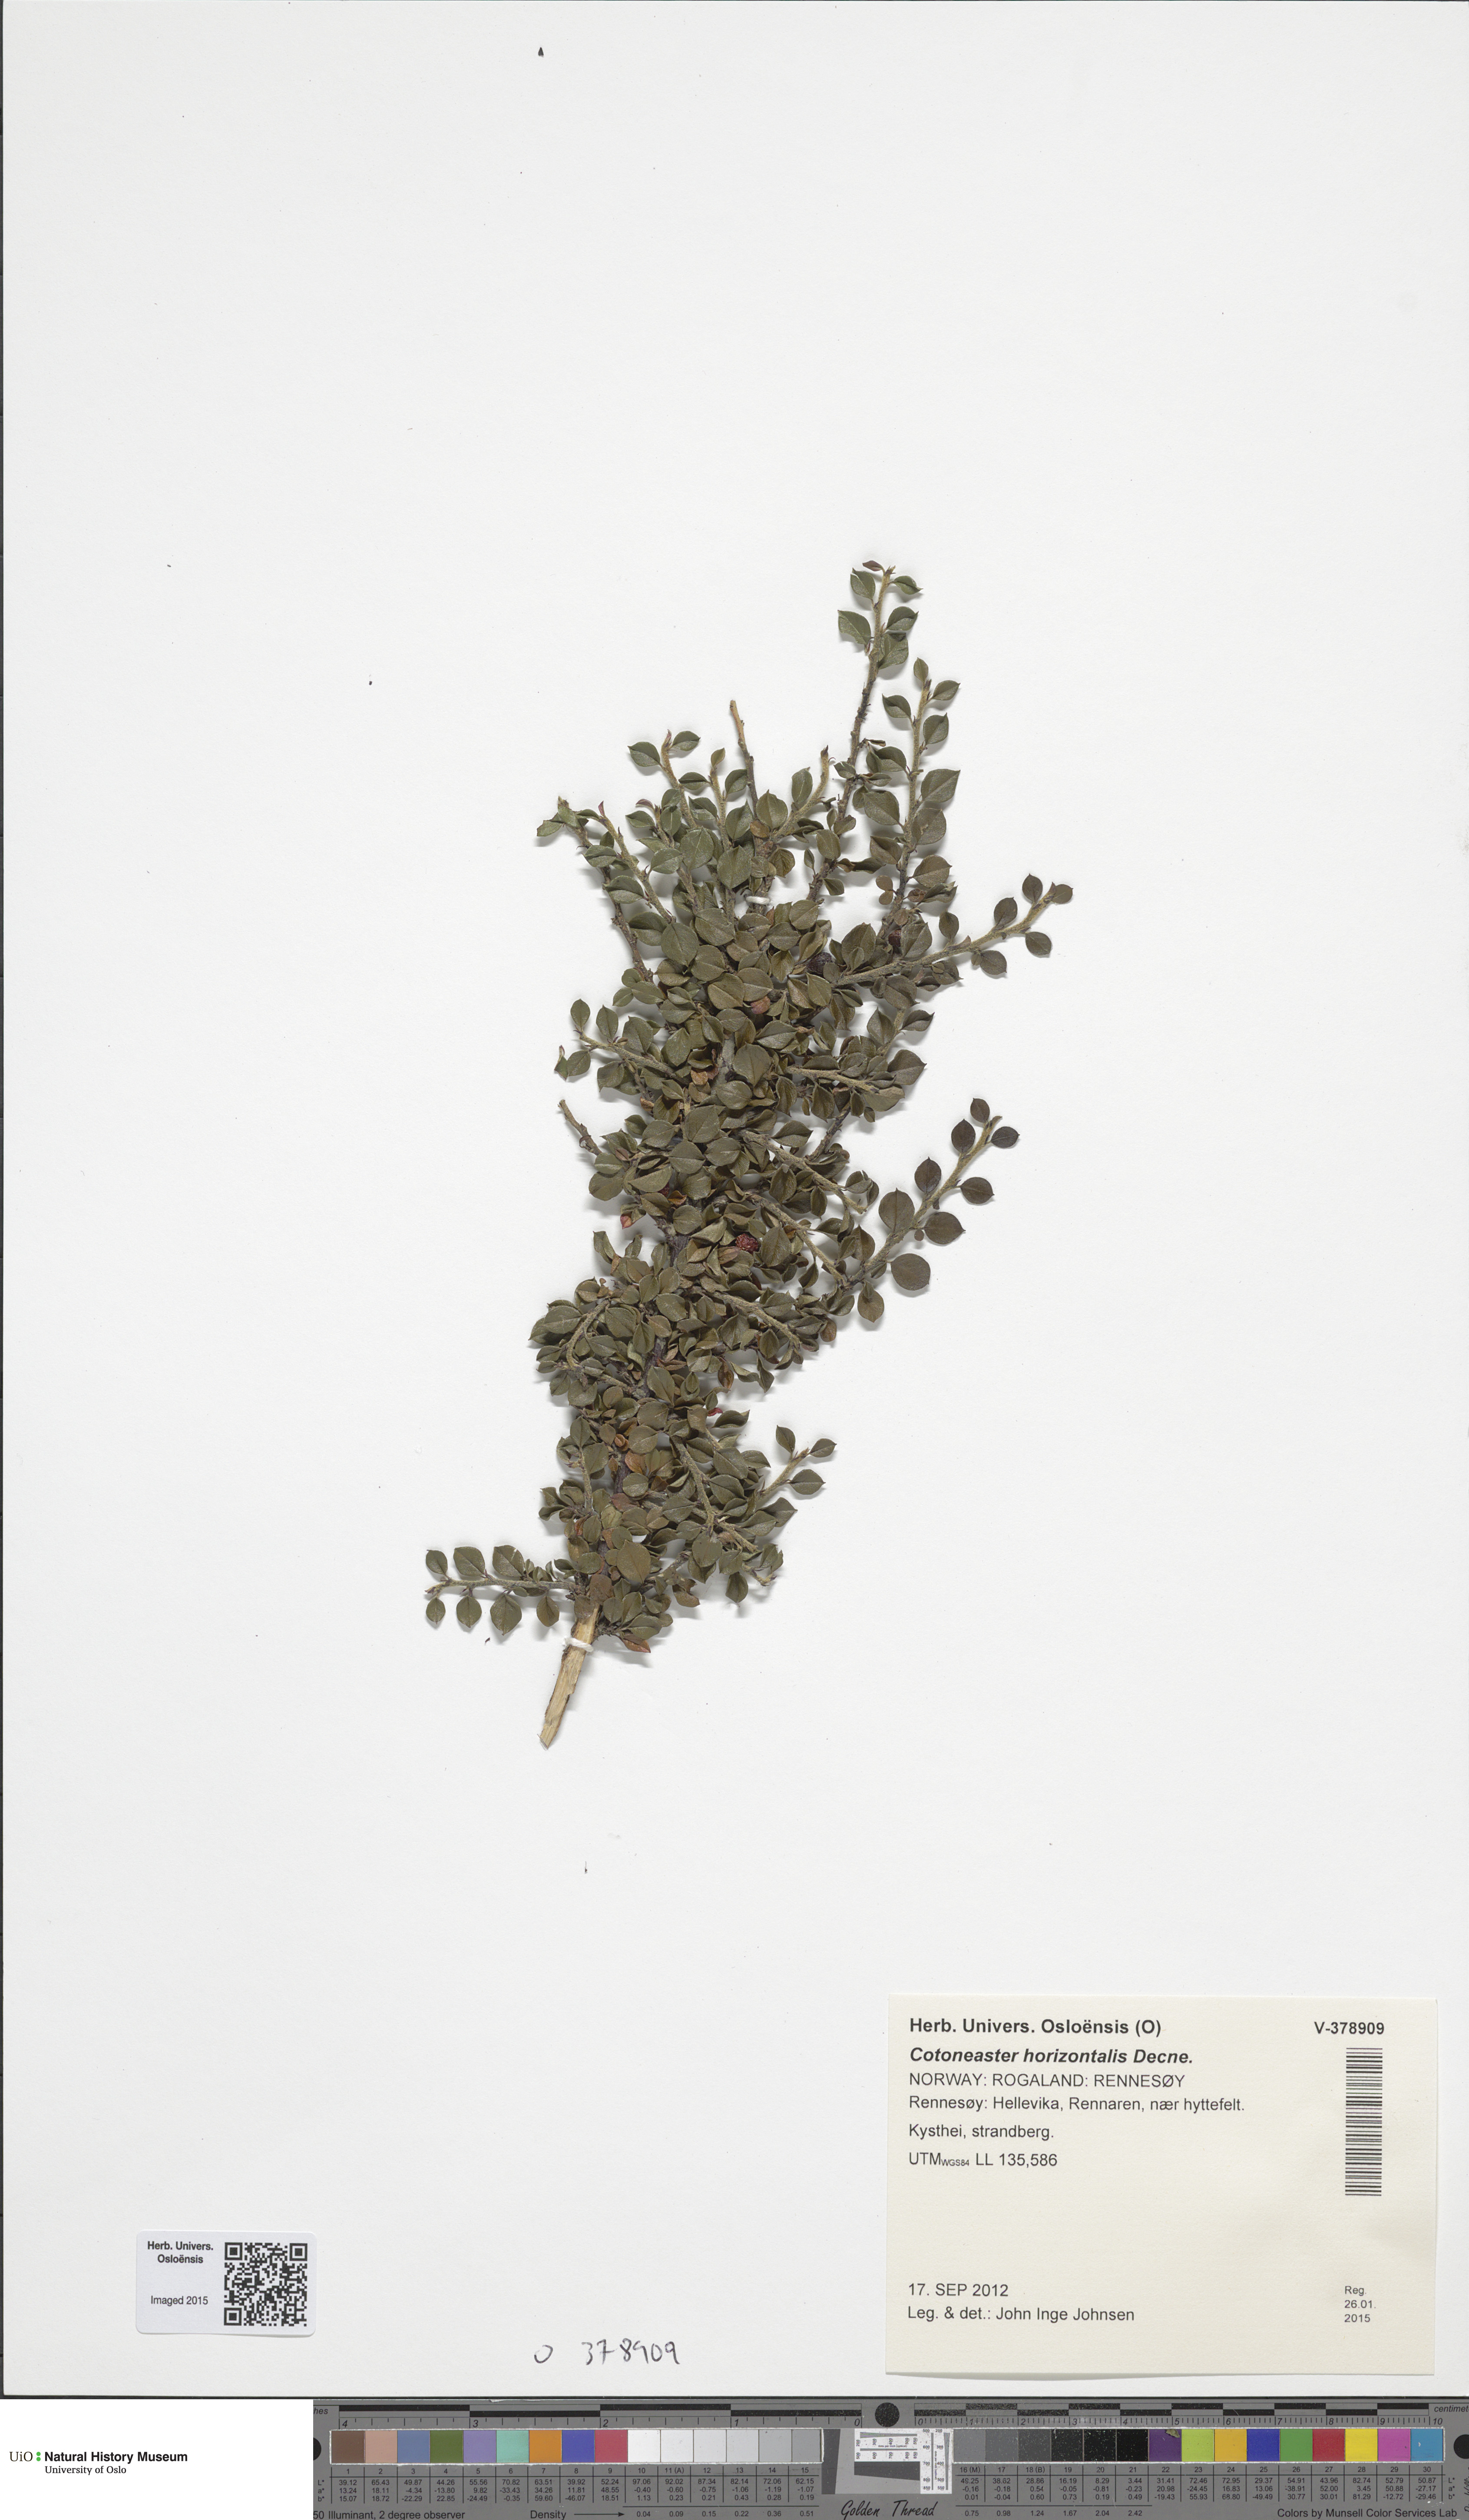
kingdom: Plantae
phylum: Tracheophyta
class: Magnoliopsida
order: Rosales
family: Rosaceae
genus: Cotoneaster
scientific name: Cotoneaster horizontalis
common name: Wall cotoneaster
